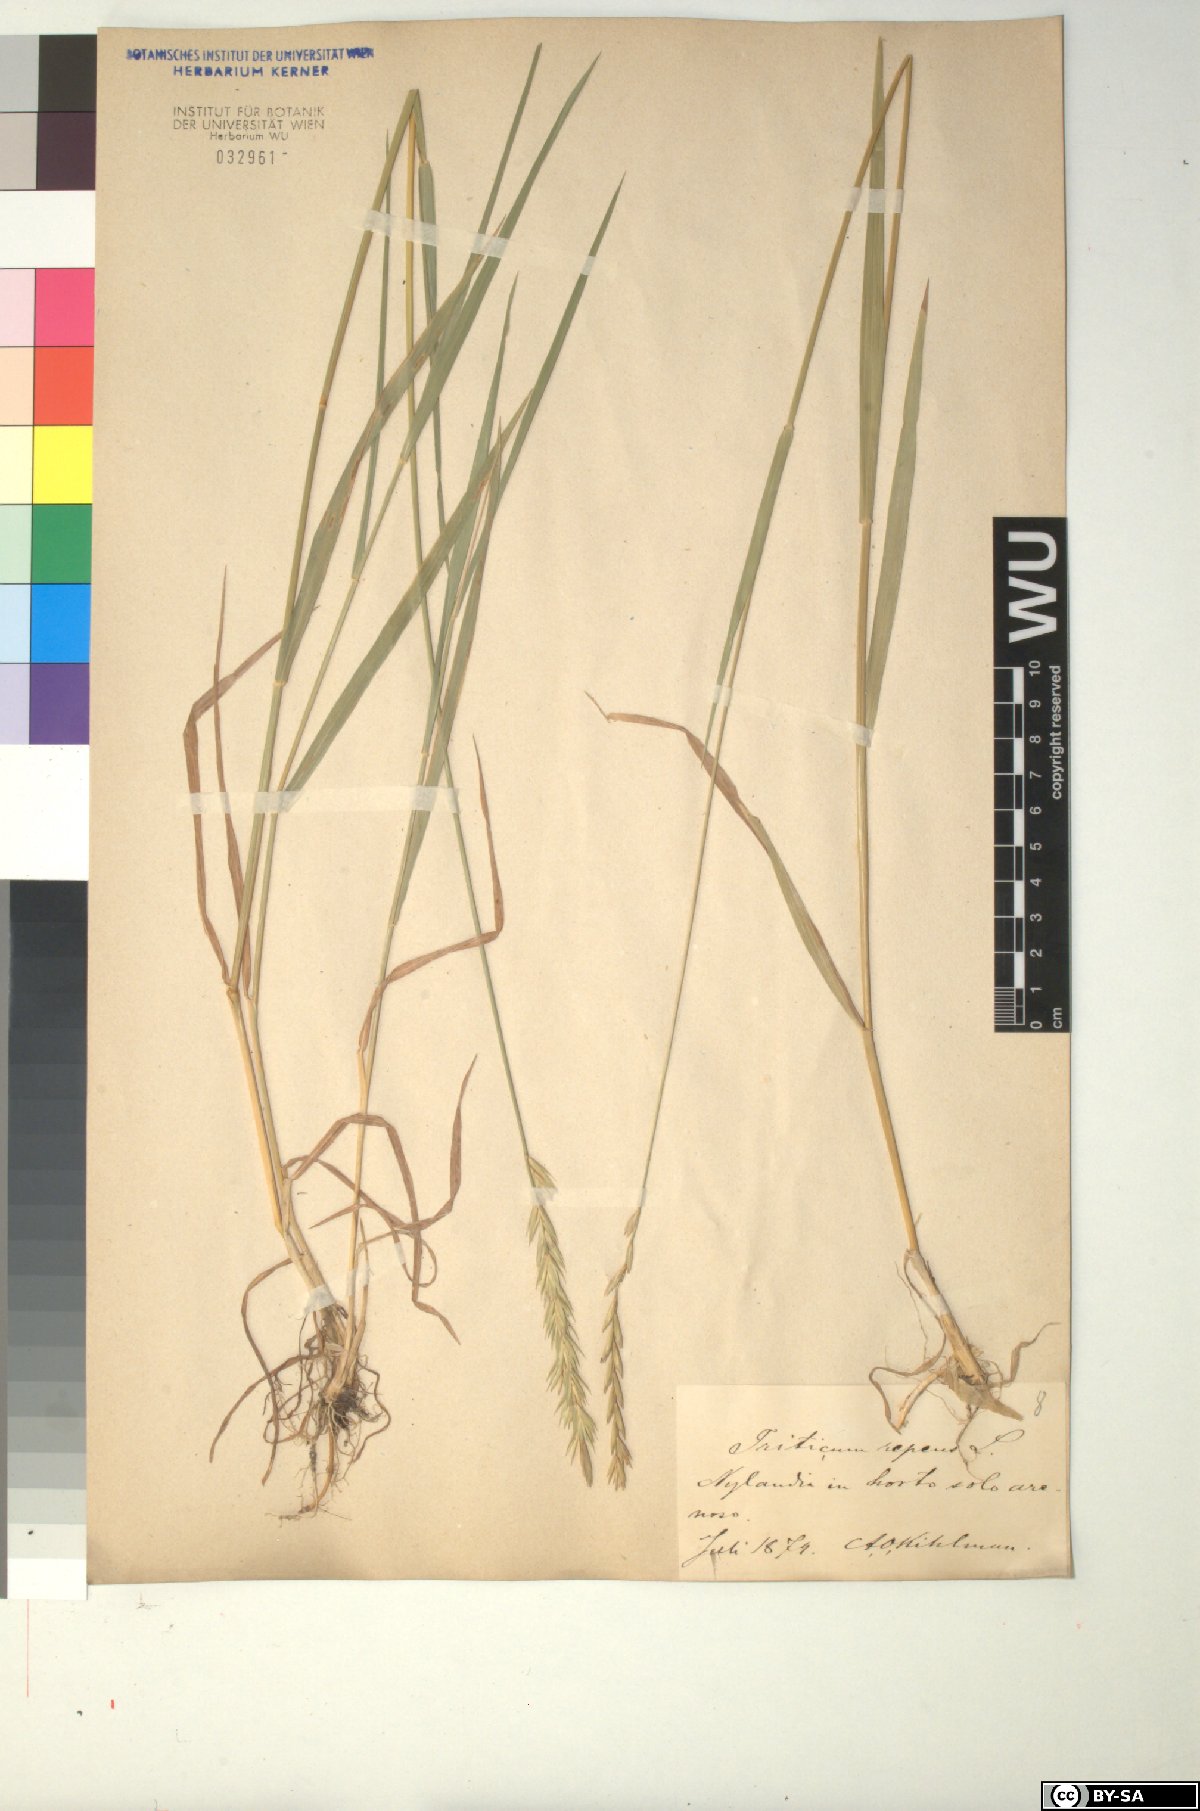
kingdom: Plantae
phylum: Tracheophyta
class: Liliopsida
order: Poales
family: Poaceae
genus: Elymus
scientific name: Elymus repens
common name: Quackgrass
